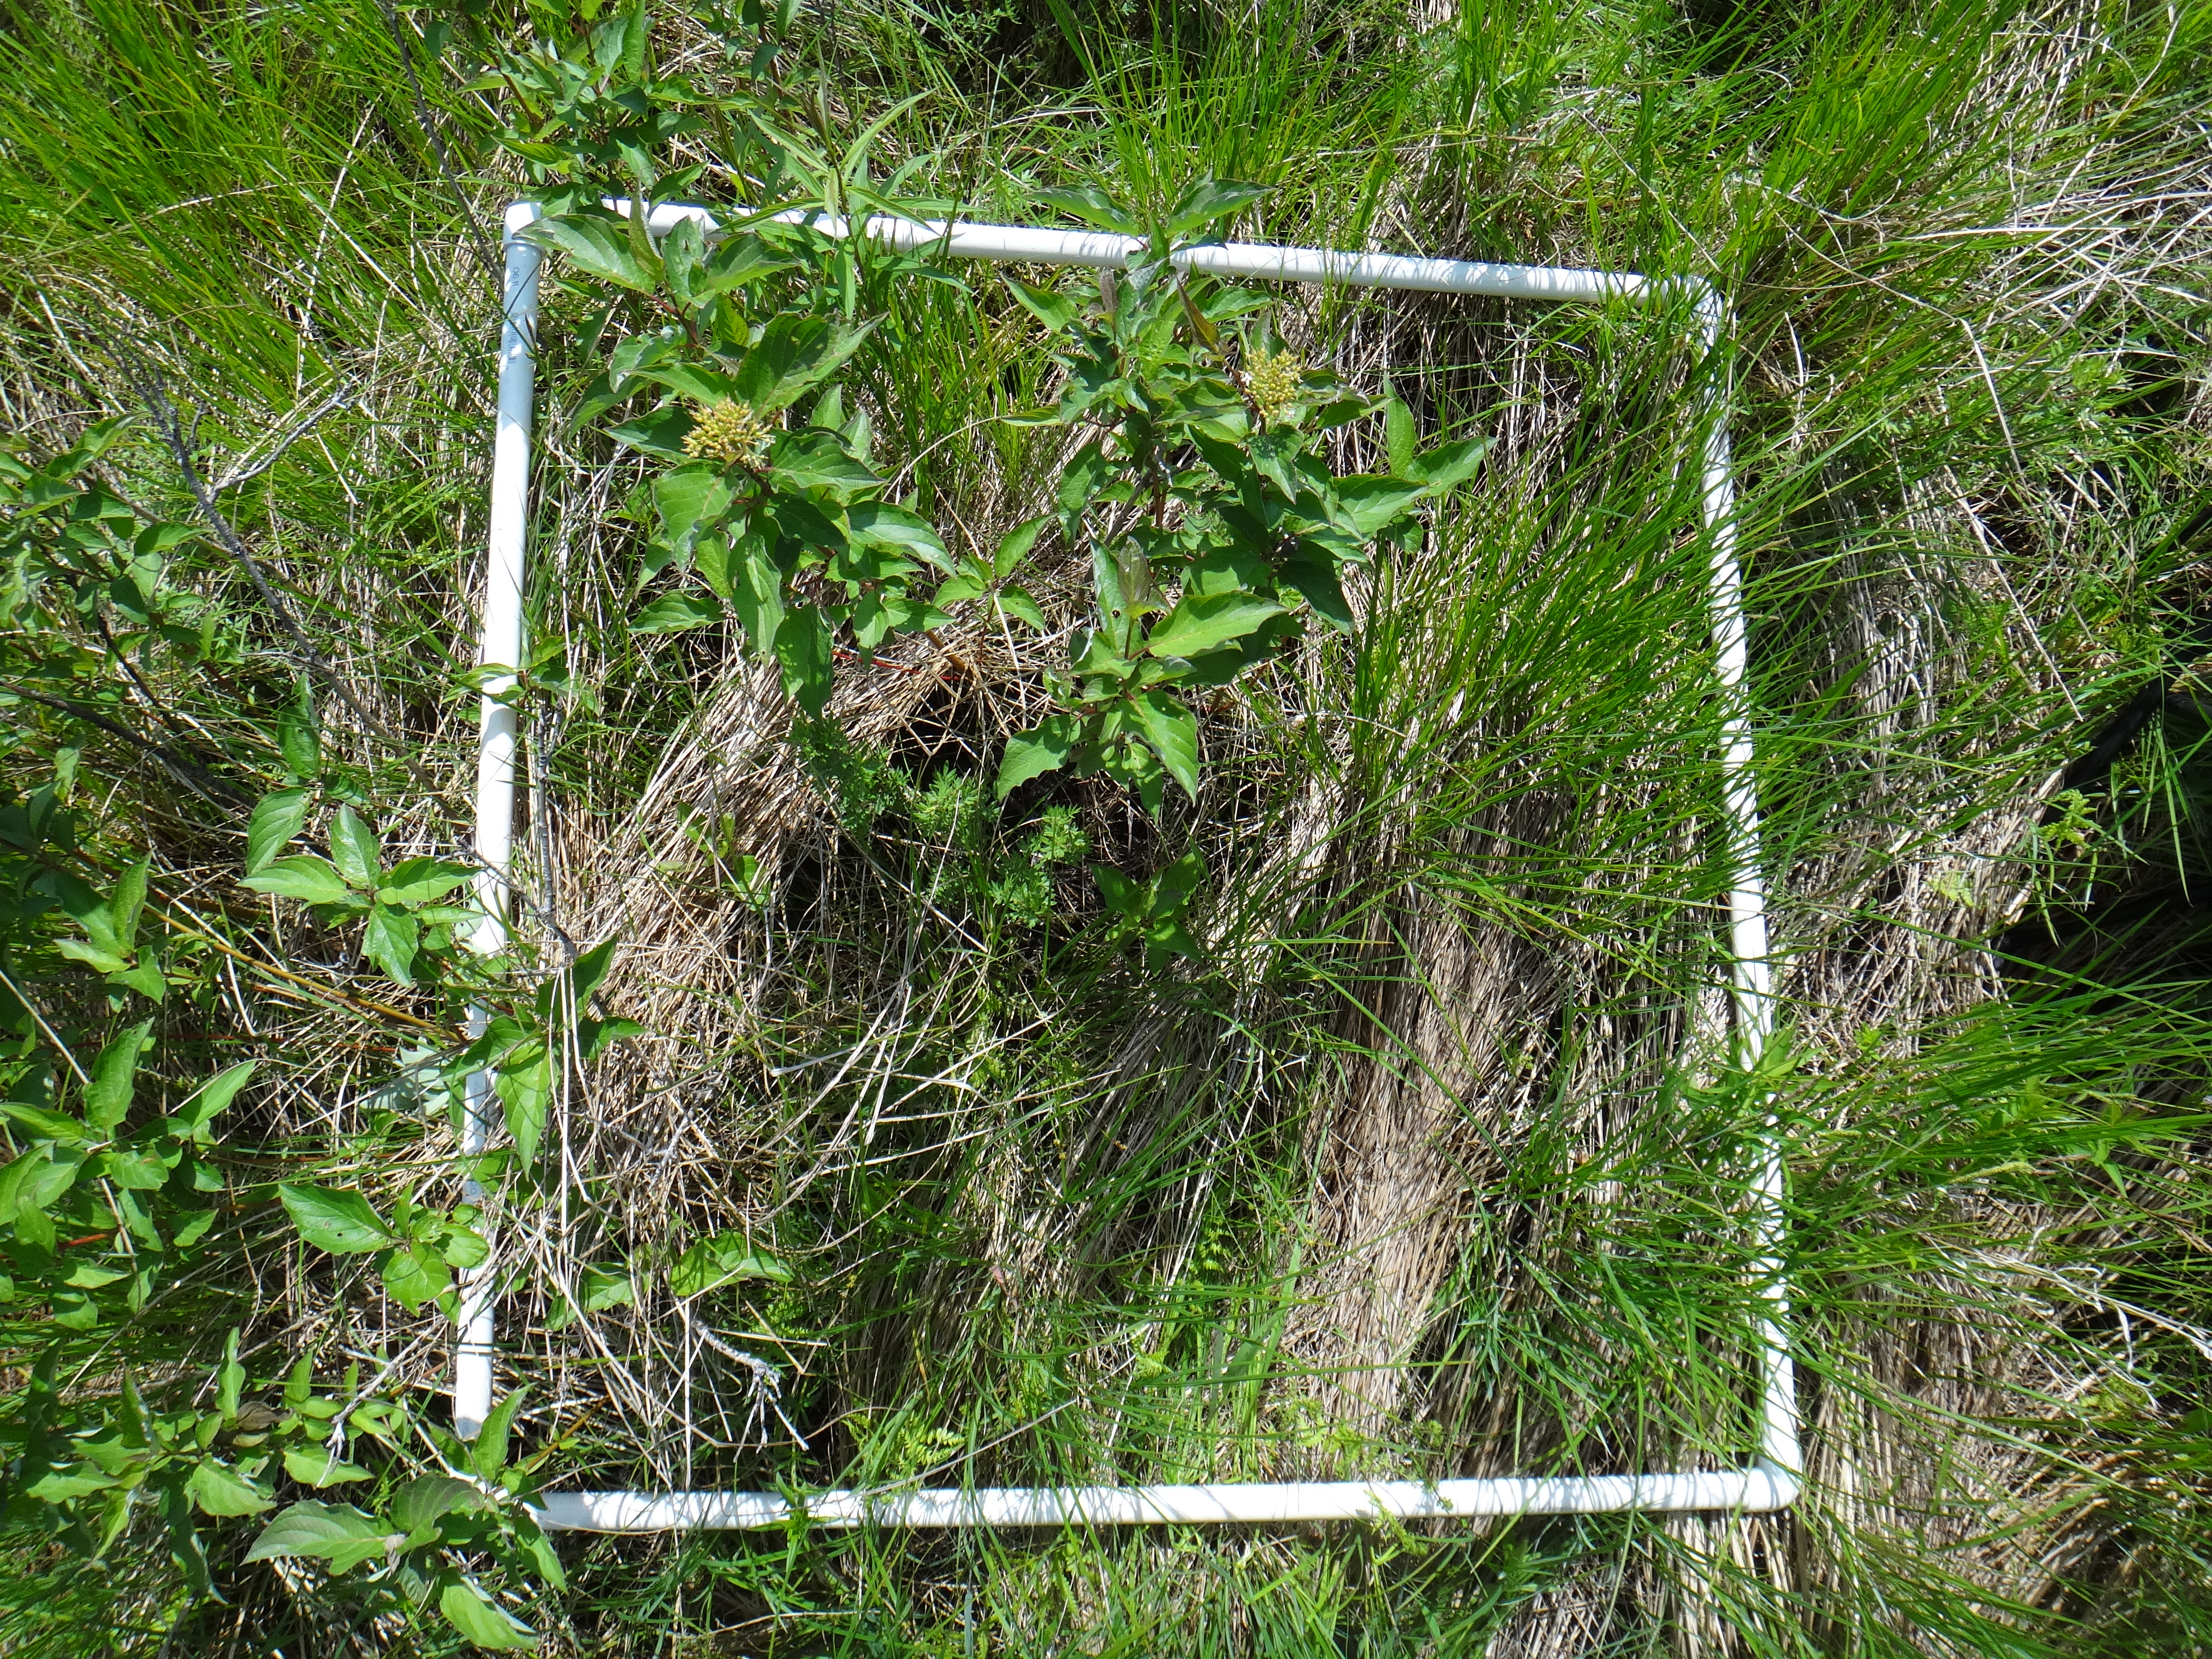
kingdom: Plantae
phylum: Tracheophyta
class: Magnoliopsida
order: Rosales
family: Rosaceae
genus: Dasiphora
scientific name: Dasiphora fruticosa
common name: Shrubby cinquefoil
